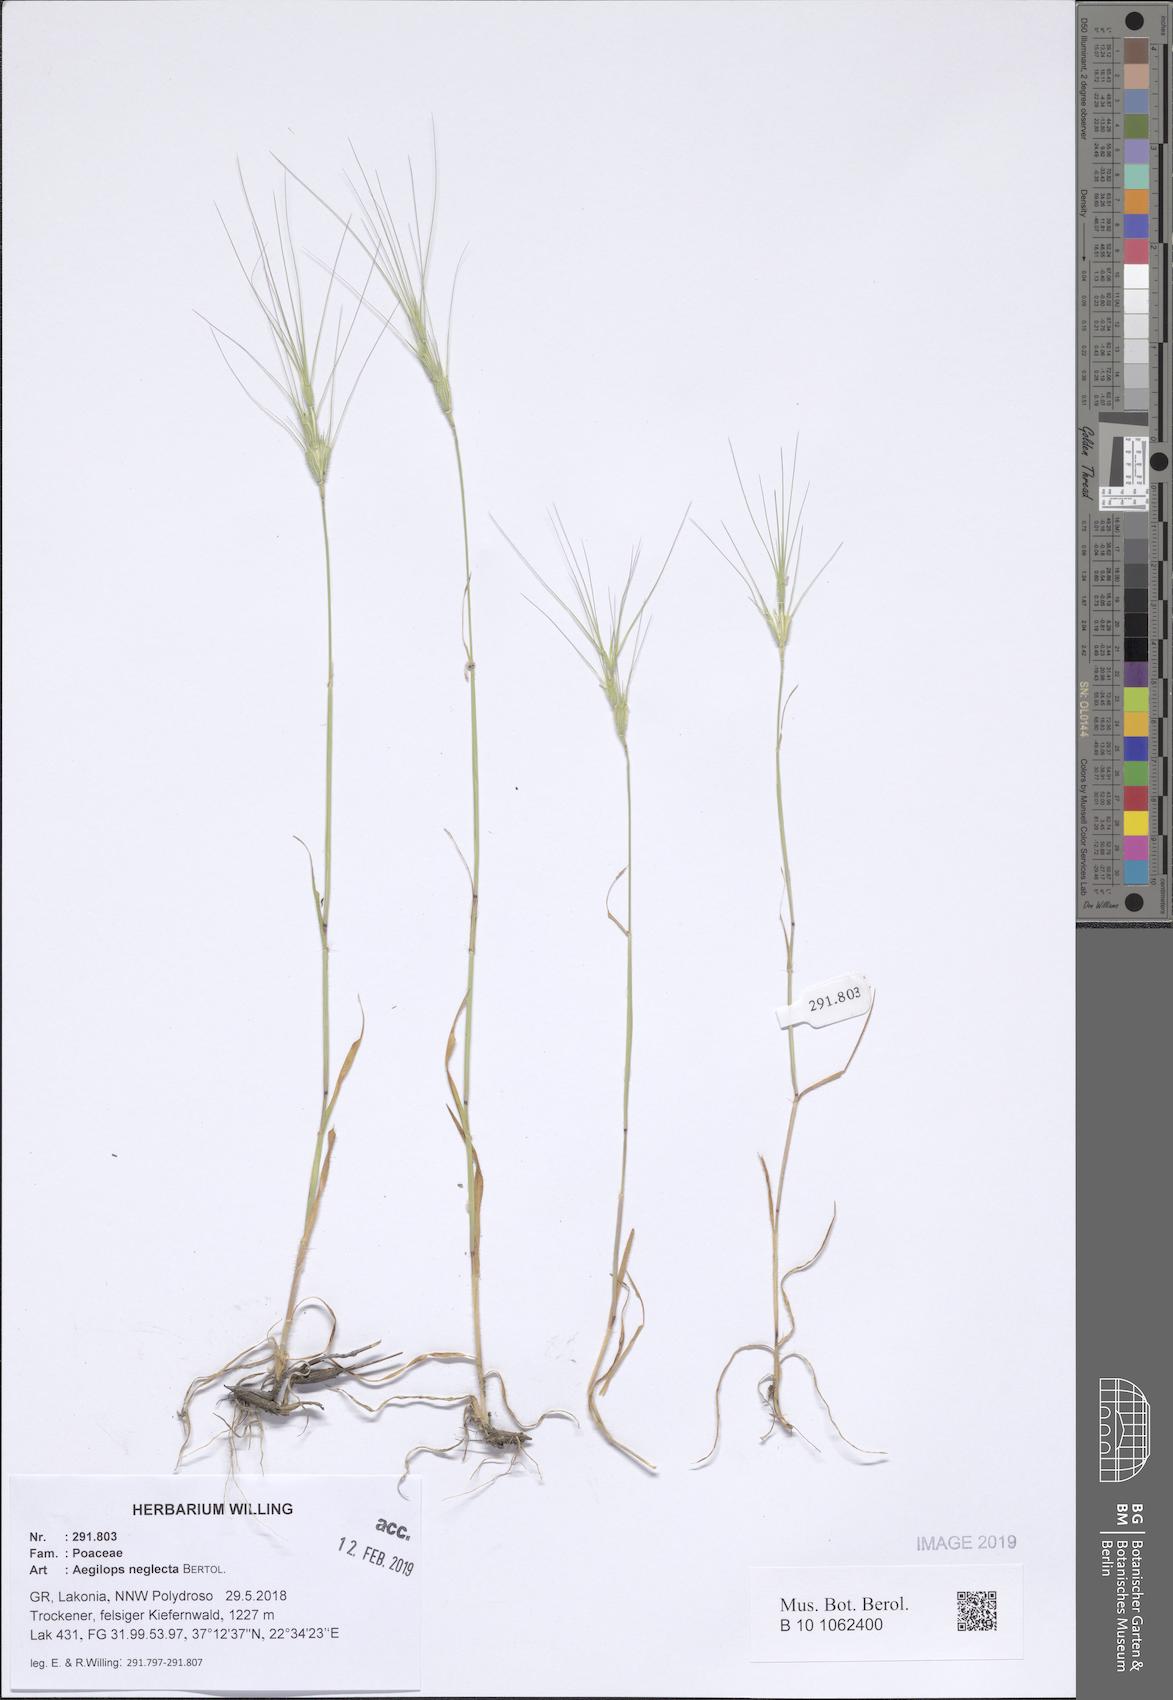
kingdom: Plantae
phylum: Tracheophyta
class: Liliopsida
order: Poales
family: Poaceae
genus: Aegilops
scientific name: Aegilops neglecta
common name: Three-awn goat grass
